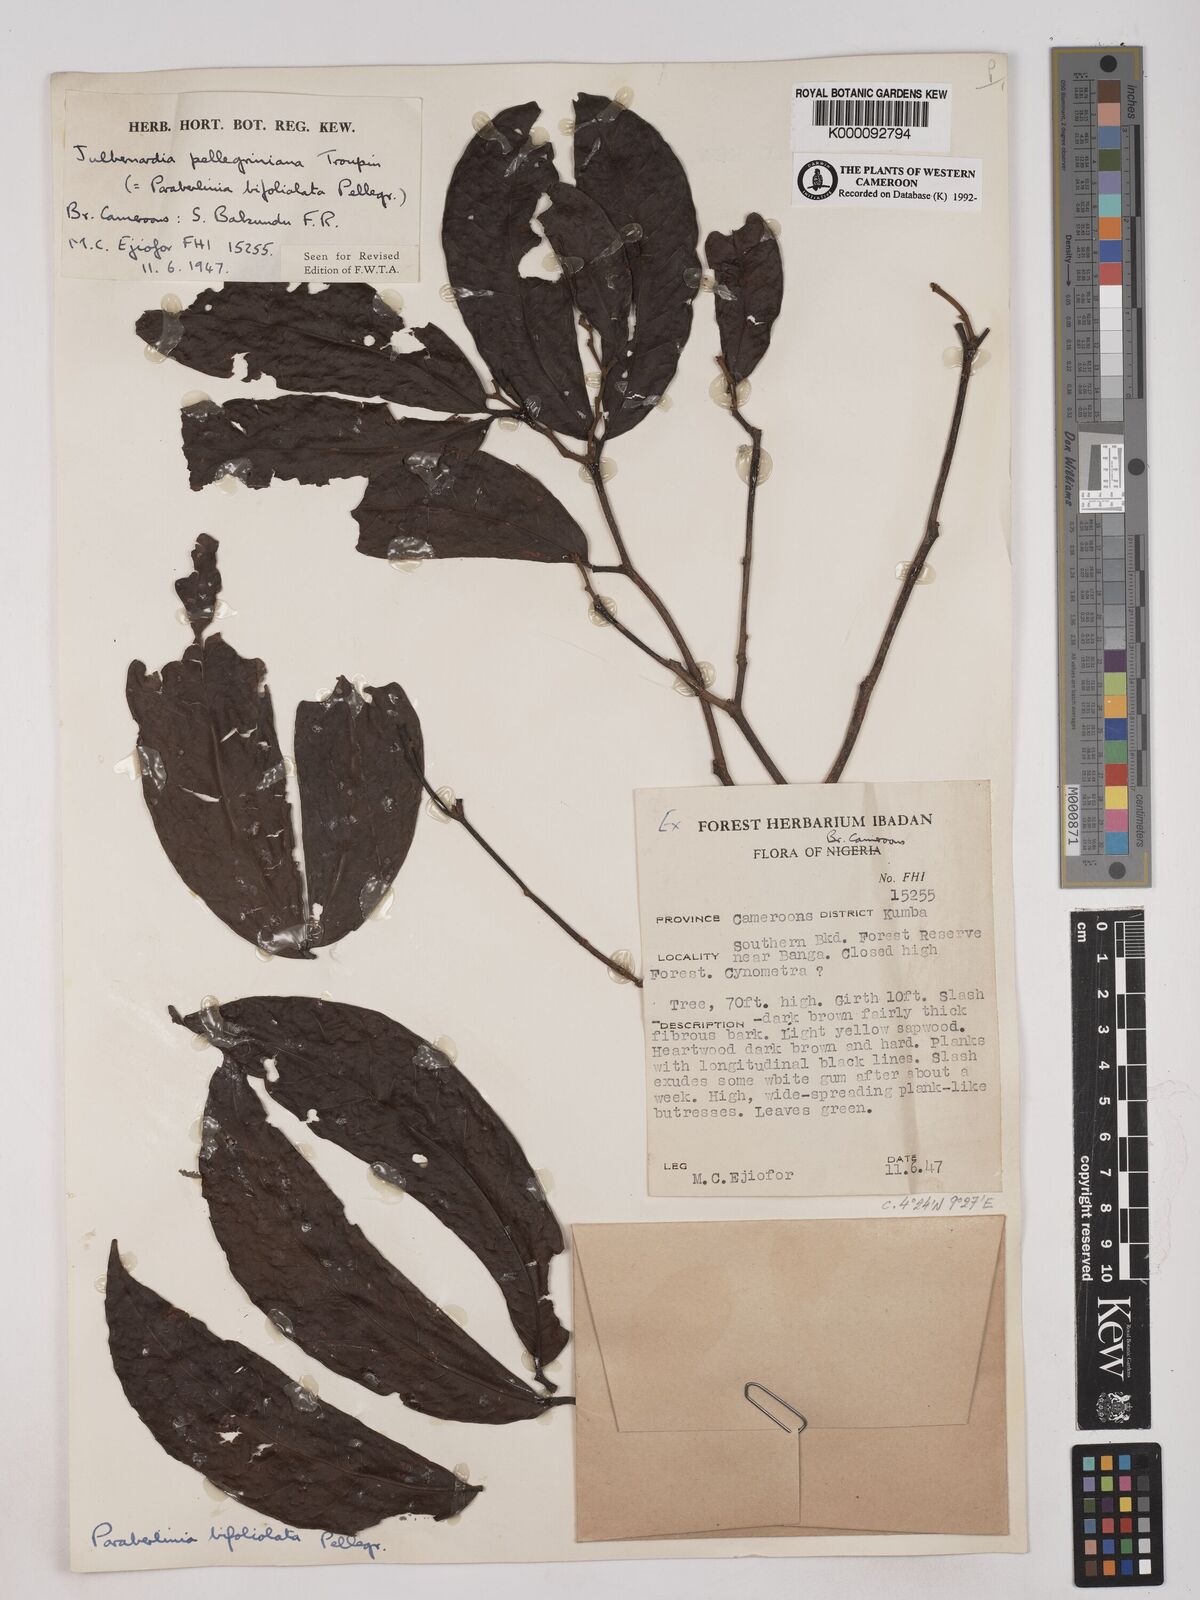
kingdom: Plantae
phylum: Tracheophyta
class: Magnoliopsida
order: Fabales
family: Fabaceae
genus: Julbernardia
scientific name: Julbernardia pellegriniana
